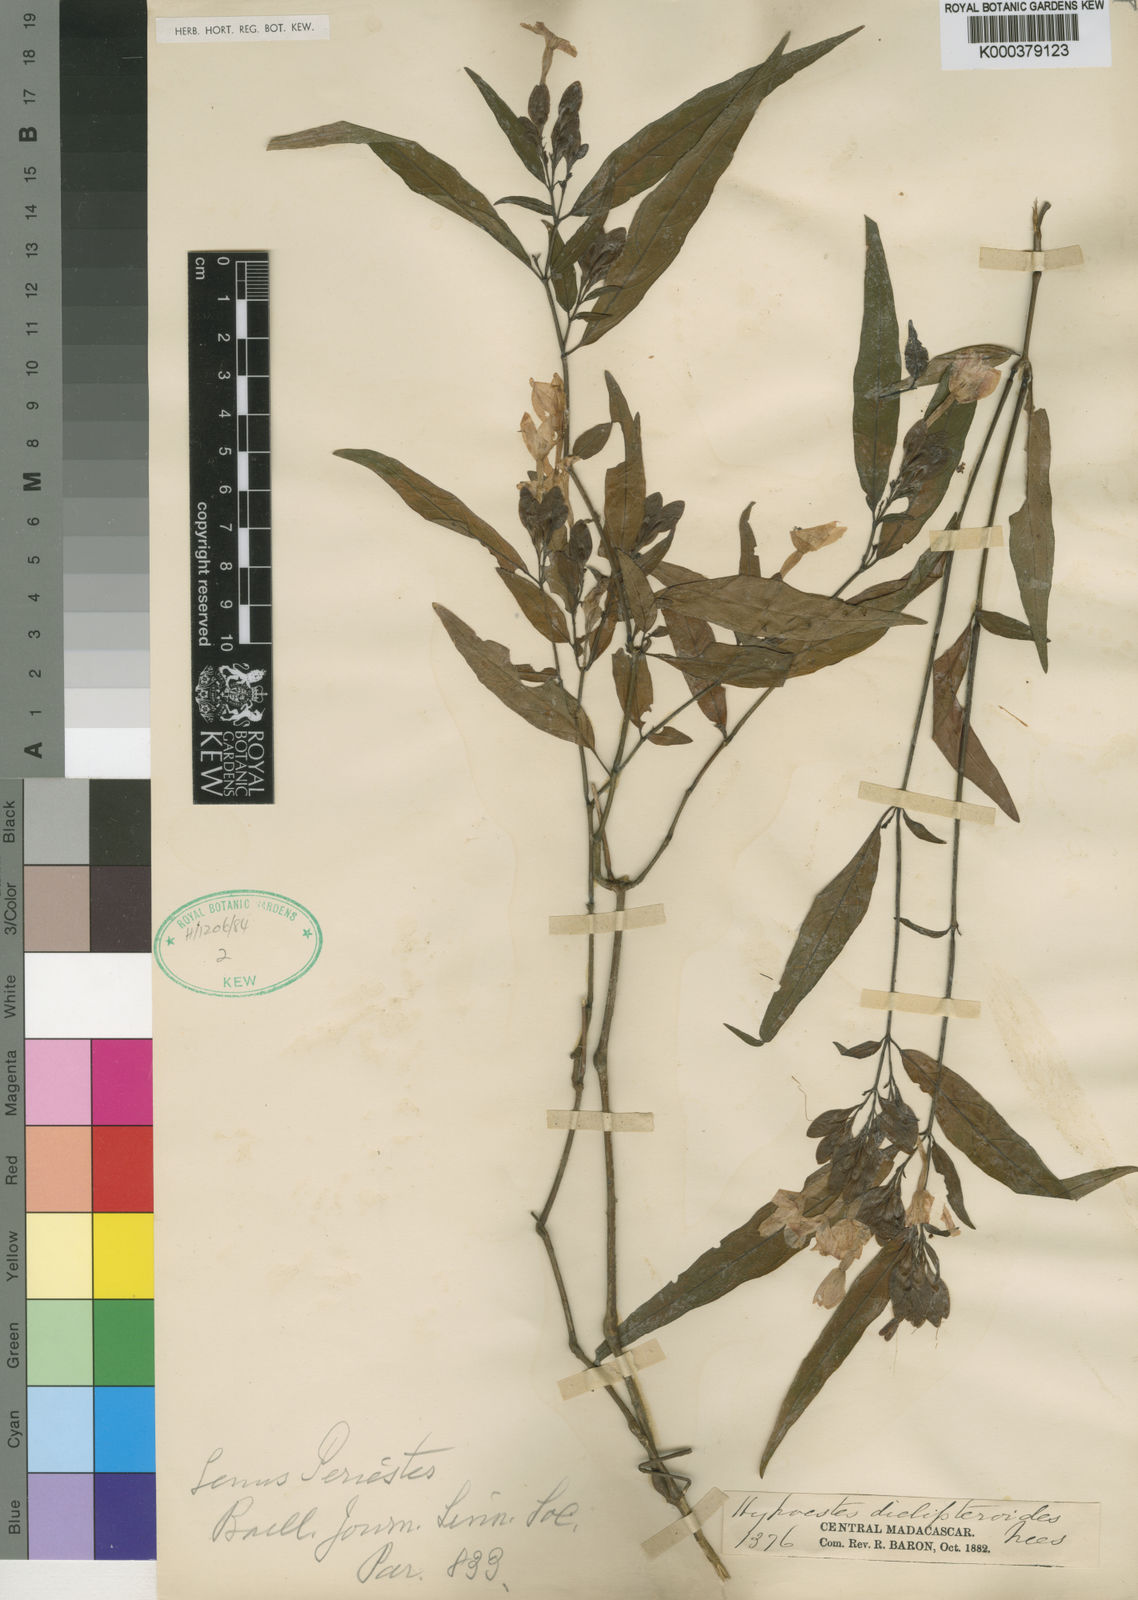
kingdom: Plantae
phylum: Tracheophyta
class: Magnoliopsida
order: Lamiales
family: Acanthaceae
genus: Hypoestes
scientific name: Hypoestes diclipteroides
